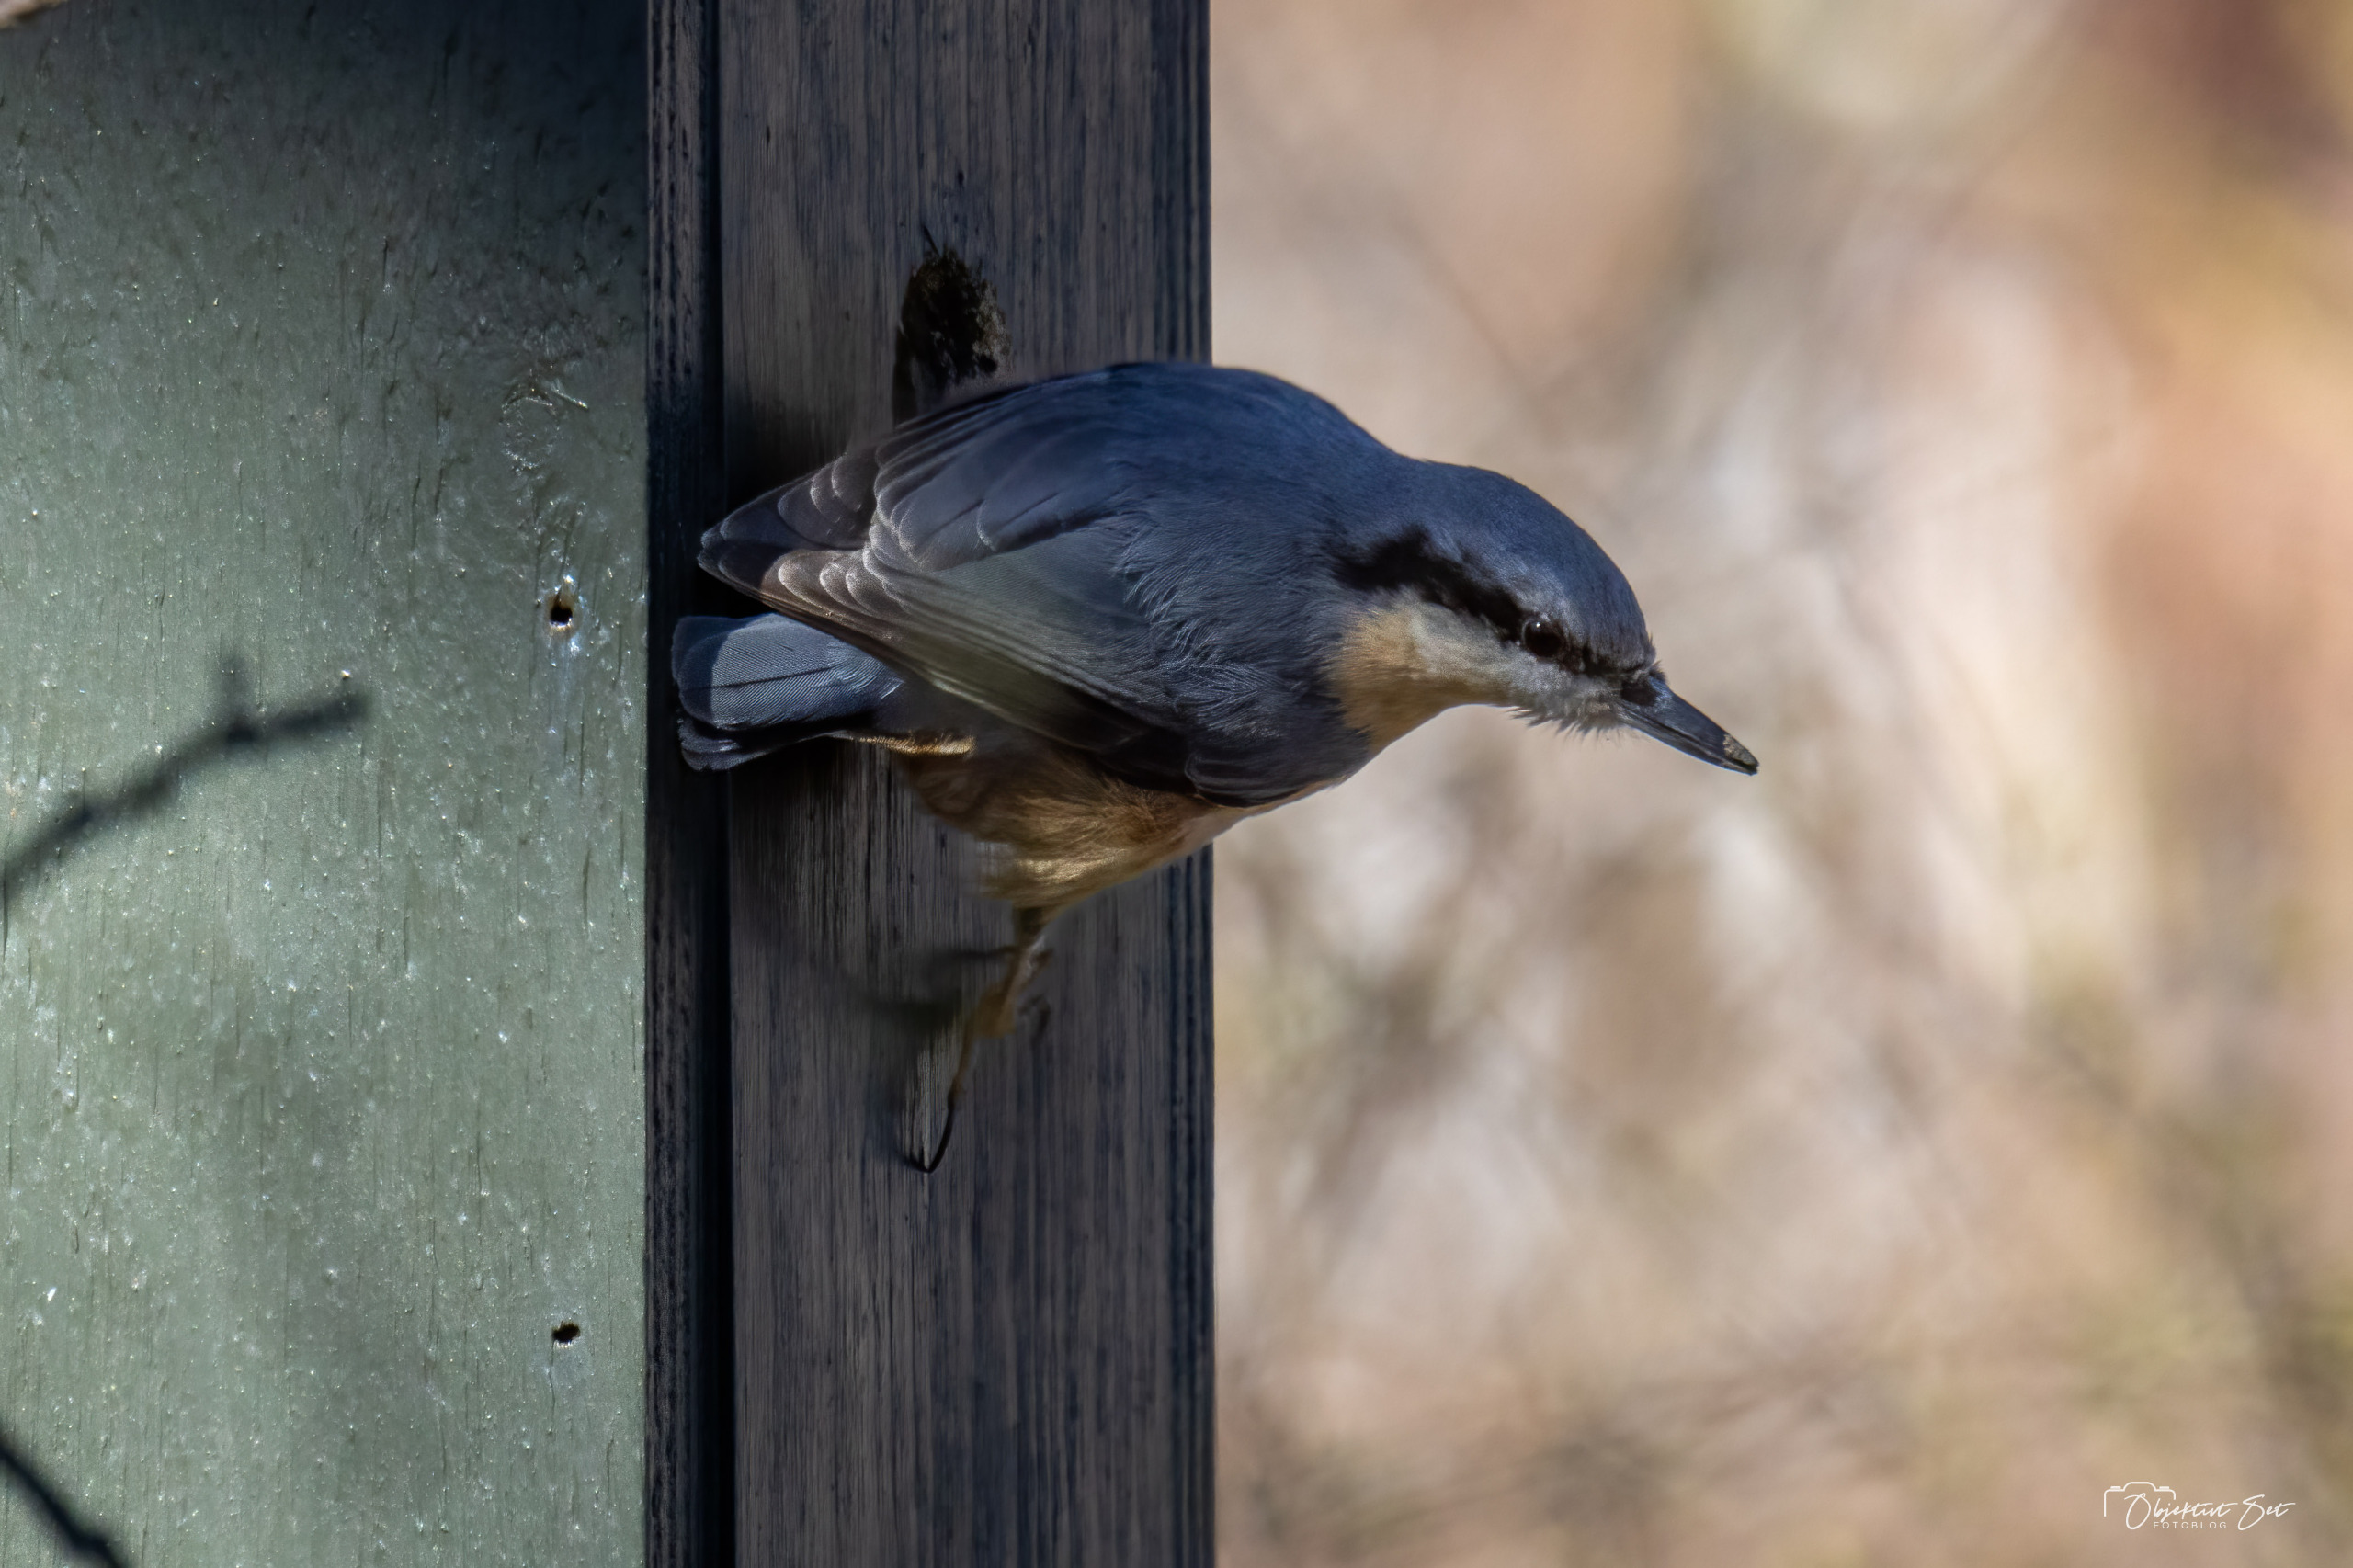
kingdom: Animalia
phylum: Chordata
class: Aves
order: Passeriformes
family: Sittidae
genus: Sitta
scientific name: Sitta europaea
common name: Spætmejse
